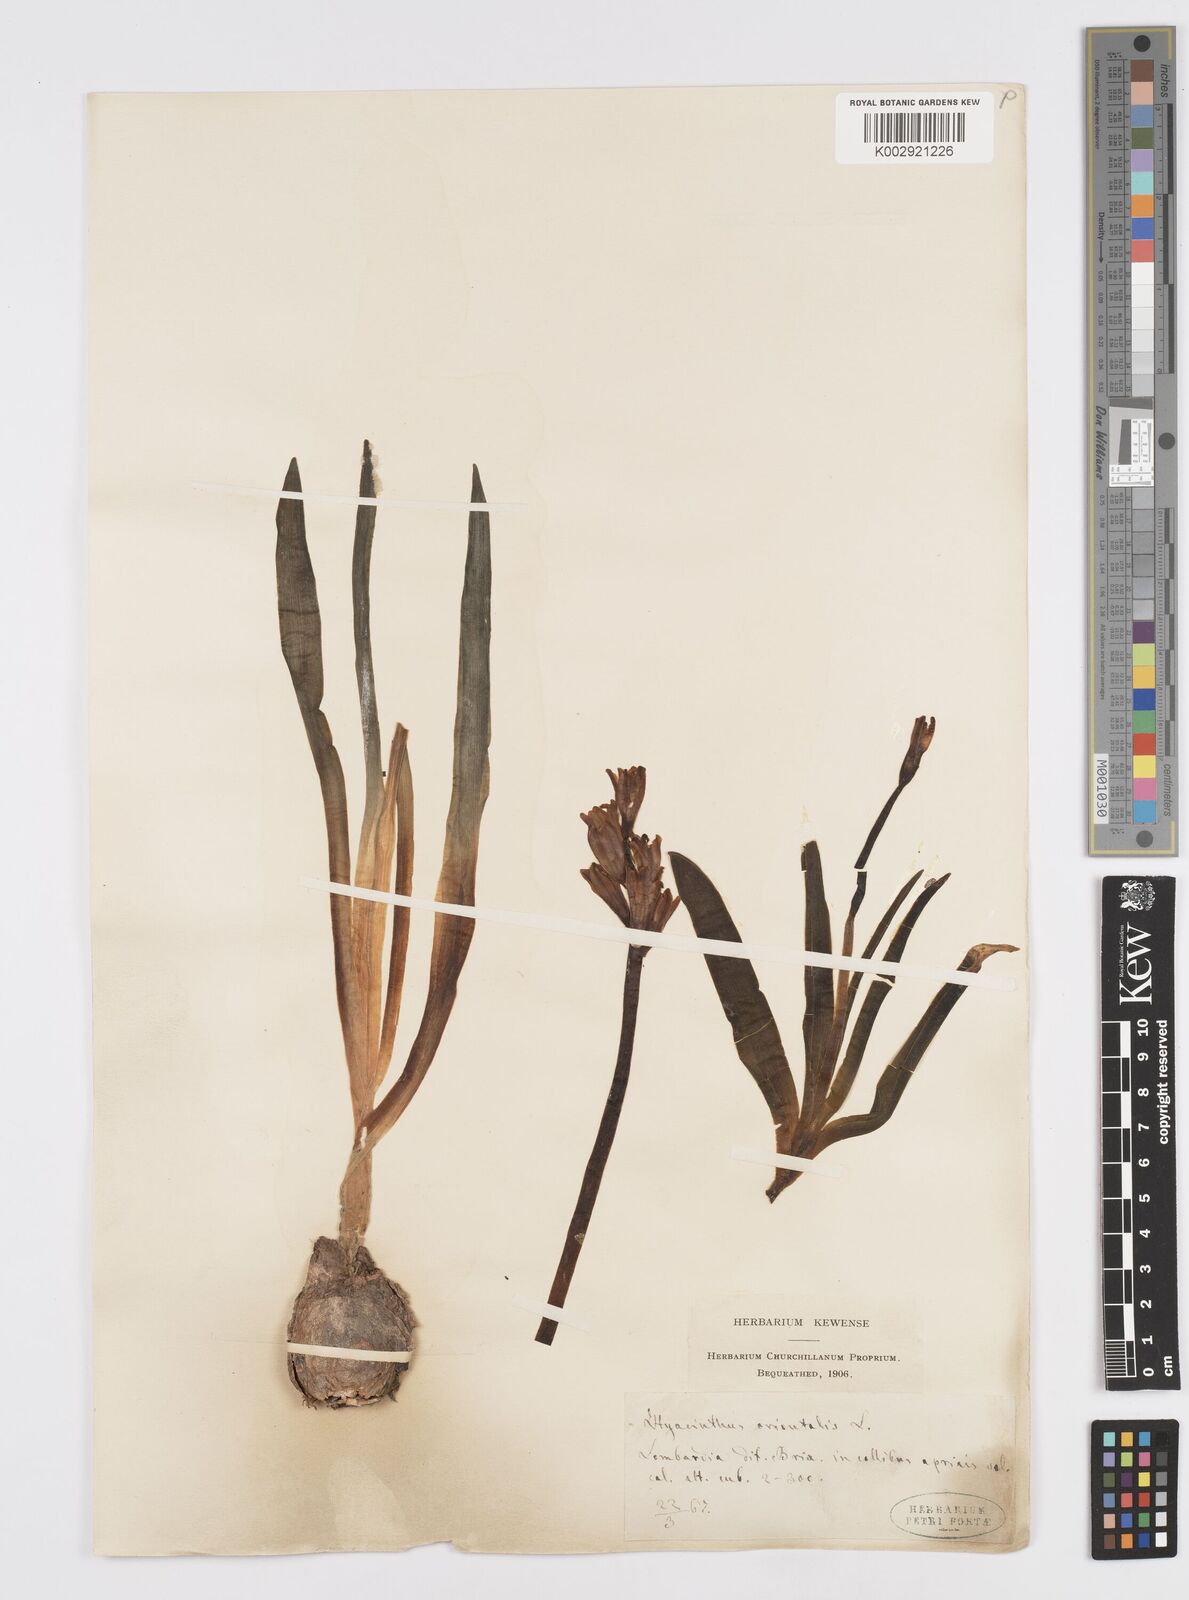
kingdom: Plantae
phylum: Tracheophyta
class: Liliopsida
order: Asparagales
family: Asparagaceae
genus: Hyacinthus
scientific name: Hyacinthus orientalis
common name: Hyacinth
